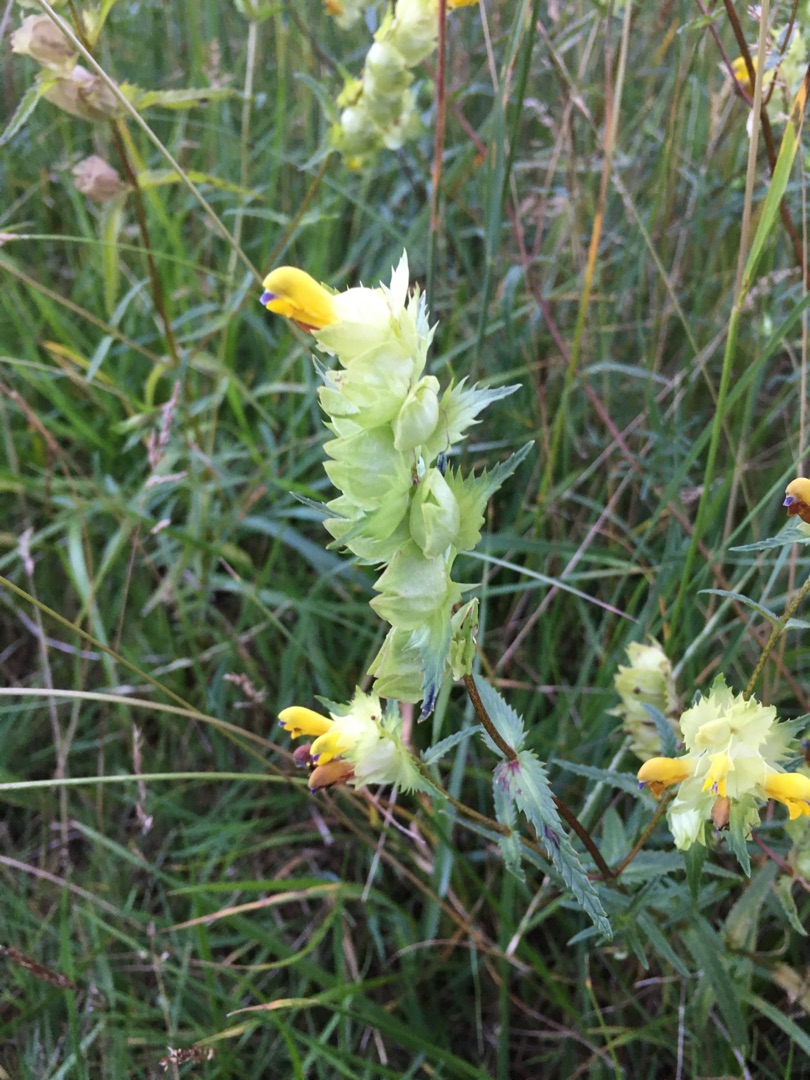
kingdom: Plantae
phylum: Tracheophyta
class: Magnoliopsida
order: Lamiales
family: Orobanchaceae
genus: Rhinanthus
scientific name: Rhinanthus
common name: Stor skjaller
